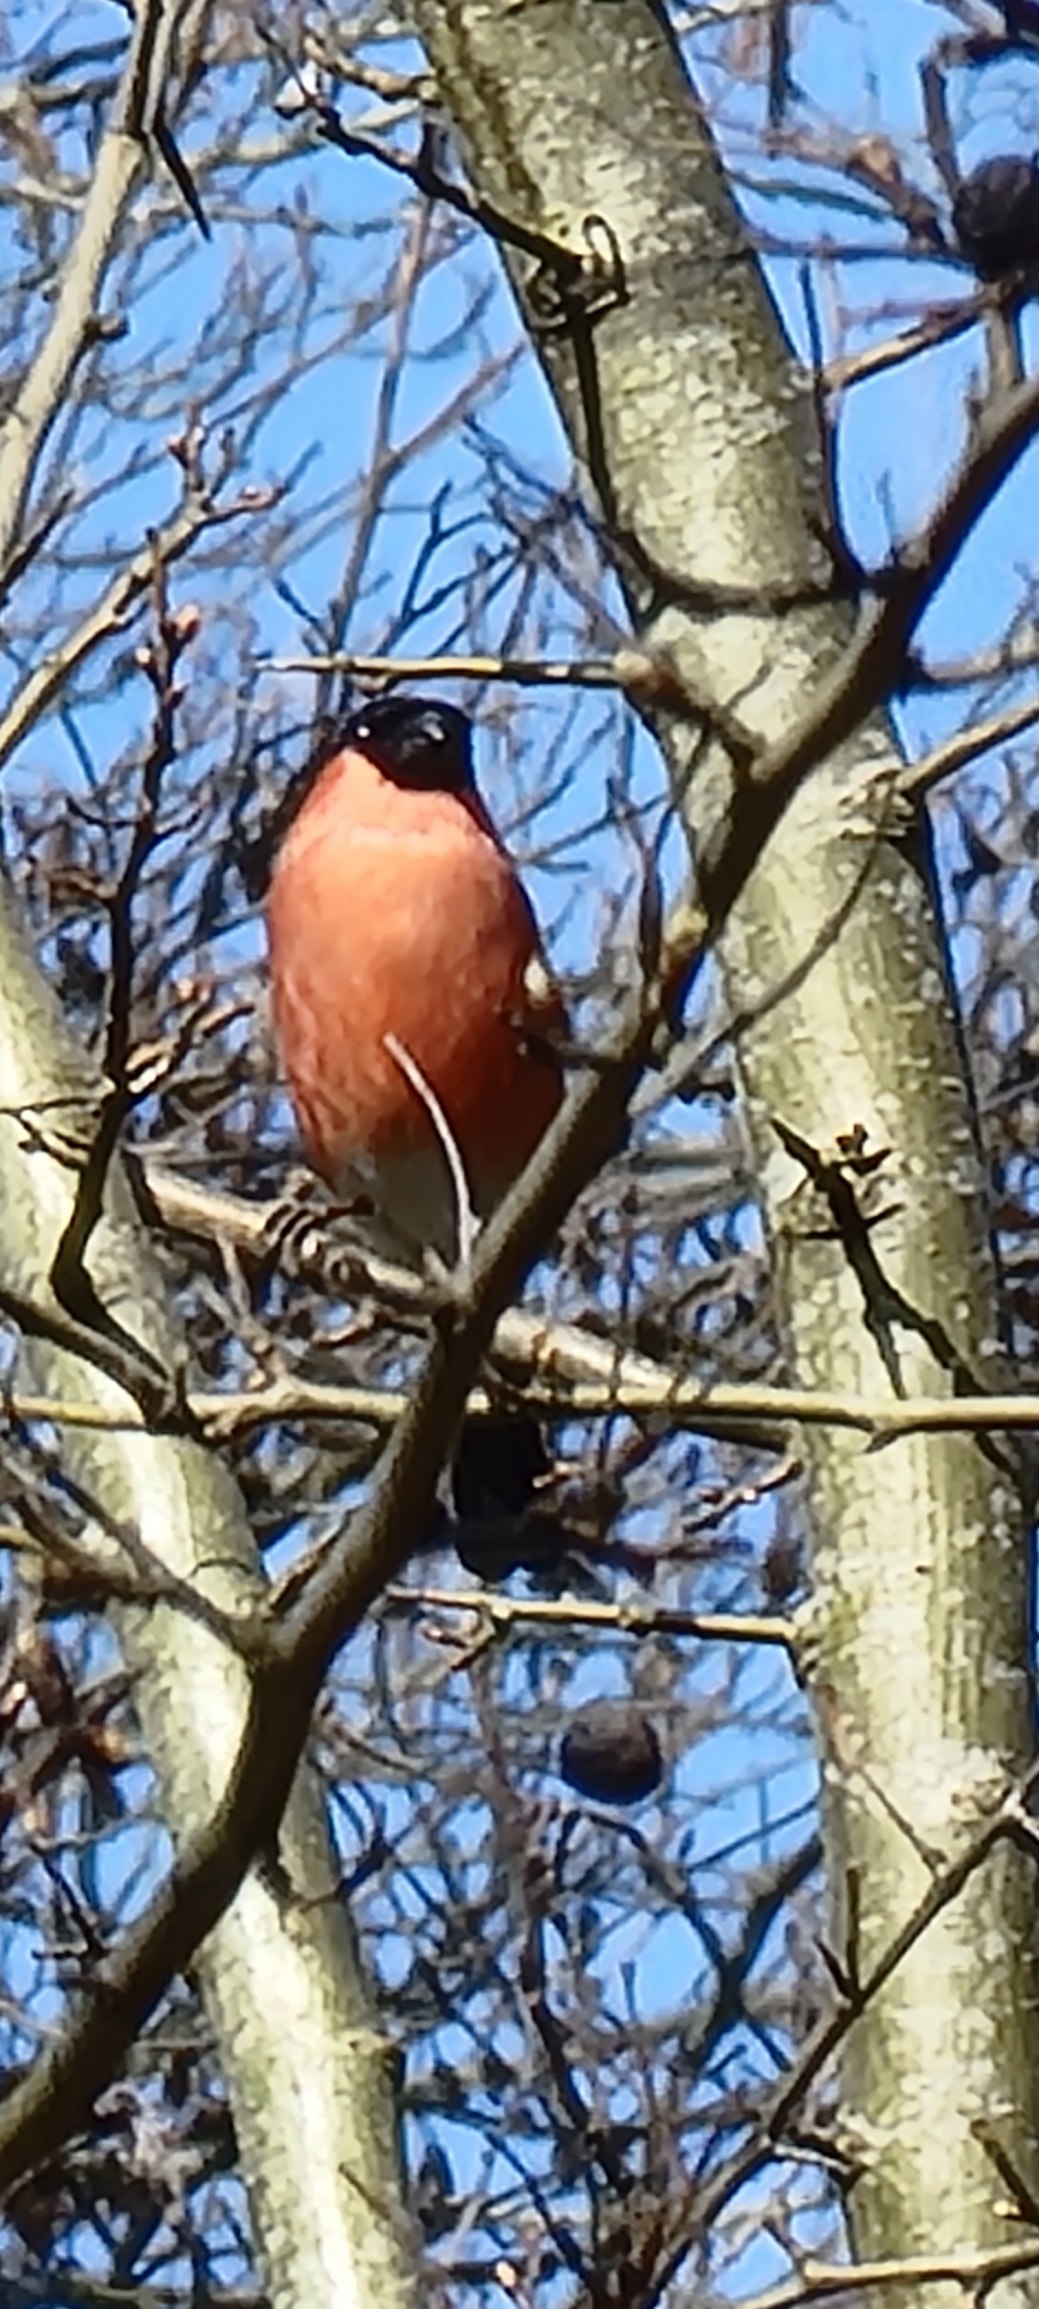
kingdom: Animalia
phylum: Chordata
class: Aves
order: Passeriformes
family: Fringillidae
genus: Pyrrhula
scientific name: Pyrrhula pyrrhula
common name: Dompap
